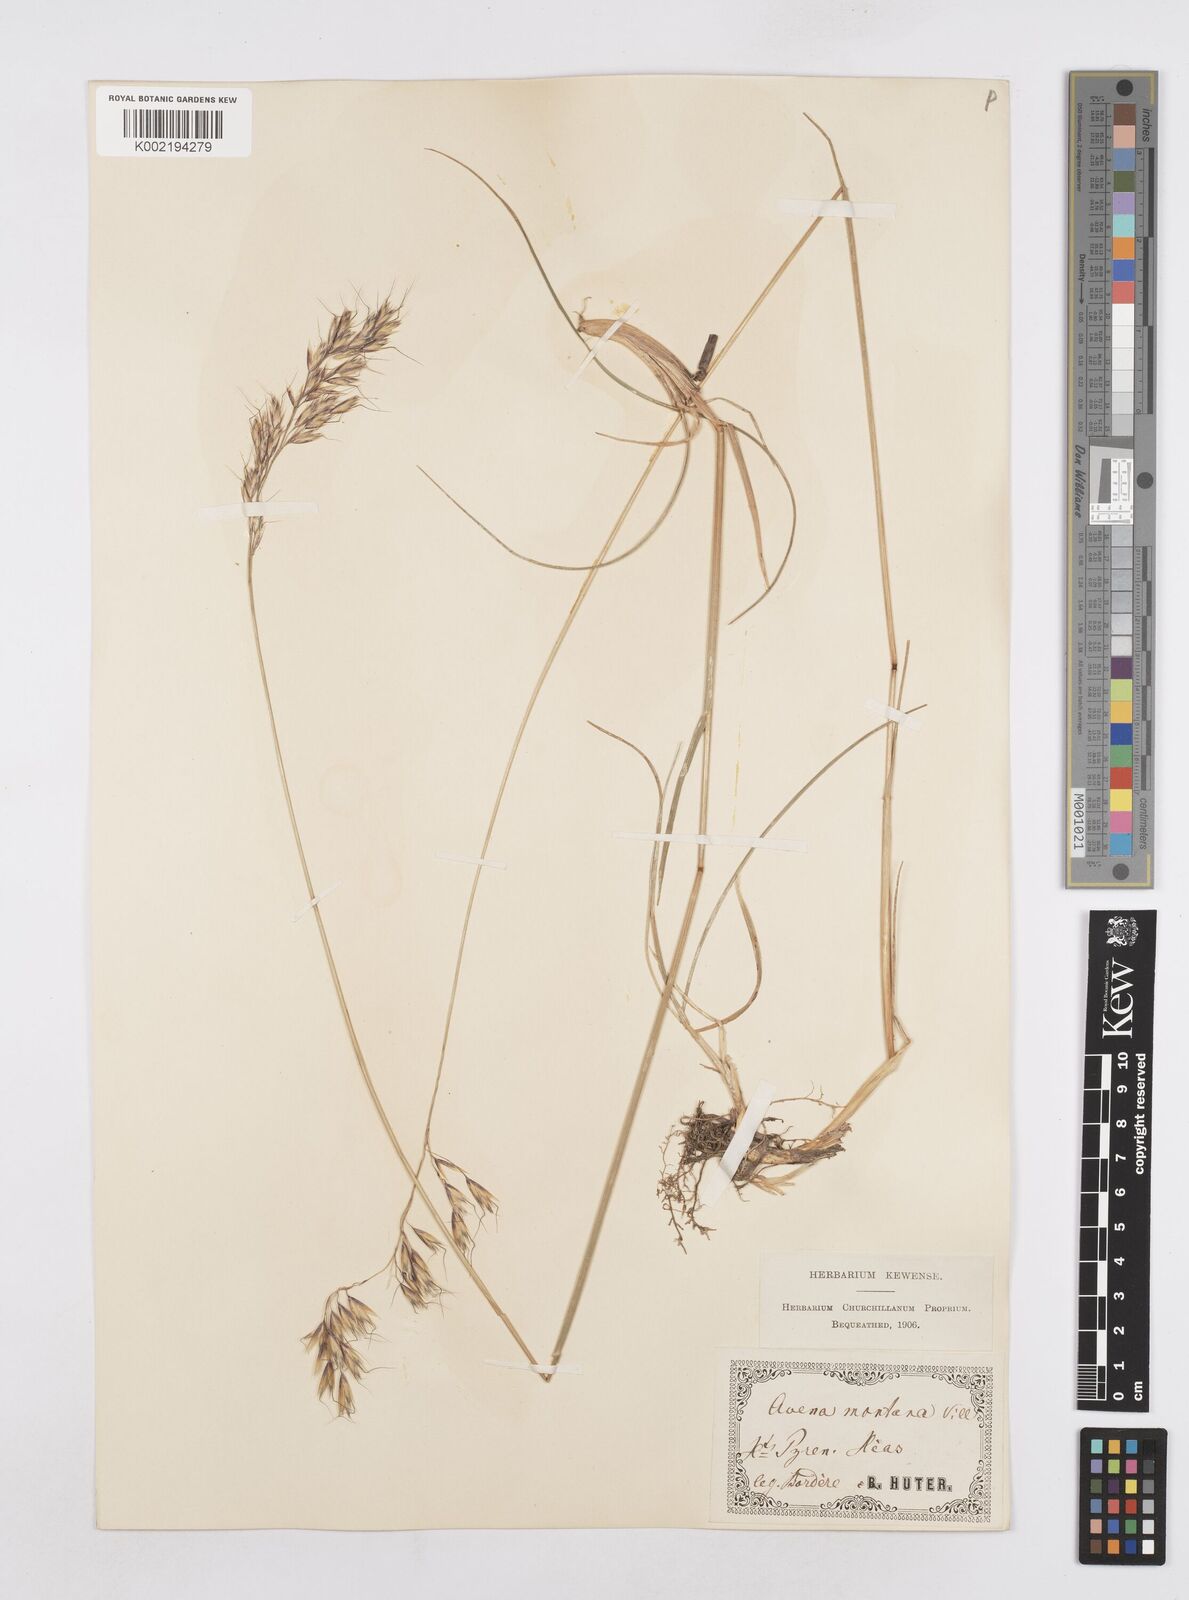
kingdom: Plantae
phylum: Tracheophyta
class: Liliopsida
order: Poales
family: Poaceae
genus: Helictotrichon
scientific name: Helictotrichon sedenense
